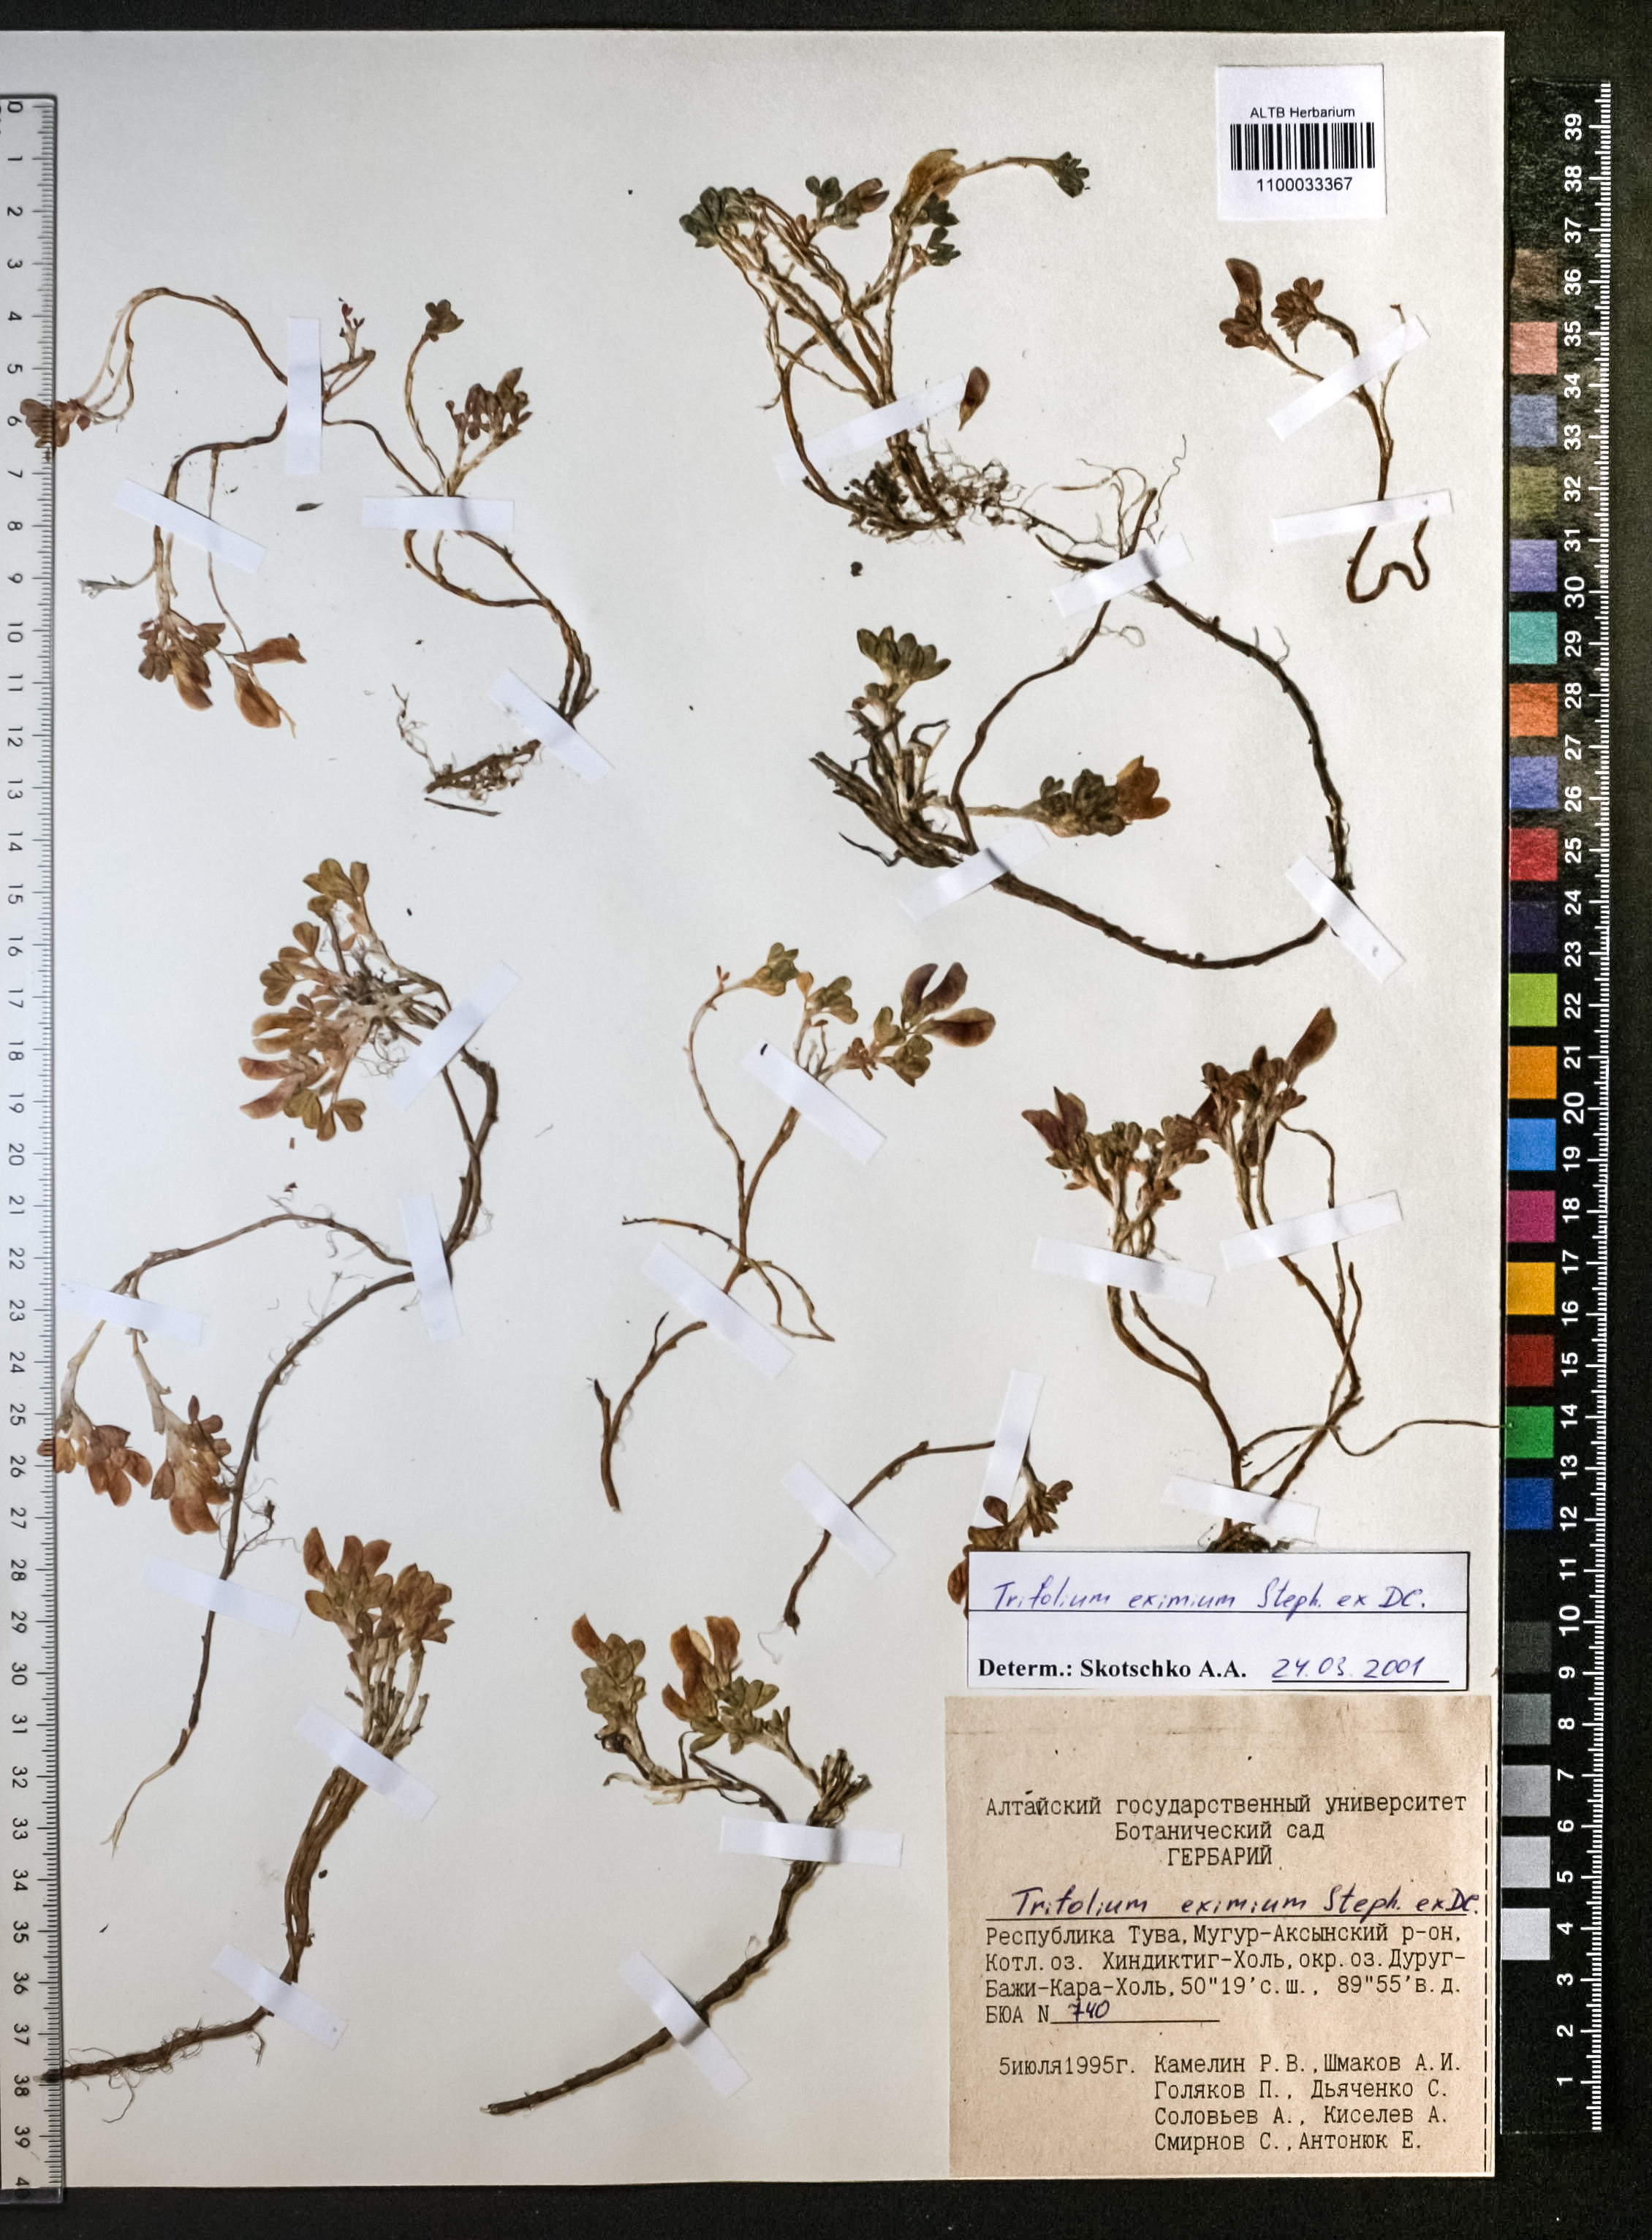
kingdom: Plantae
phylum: Tracheophyta
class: Magnoliopsida
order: Fabales
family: Fabaceae
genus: Trifolium
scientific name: Trifolium eximium
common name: Excellent clover
